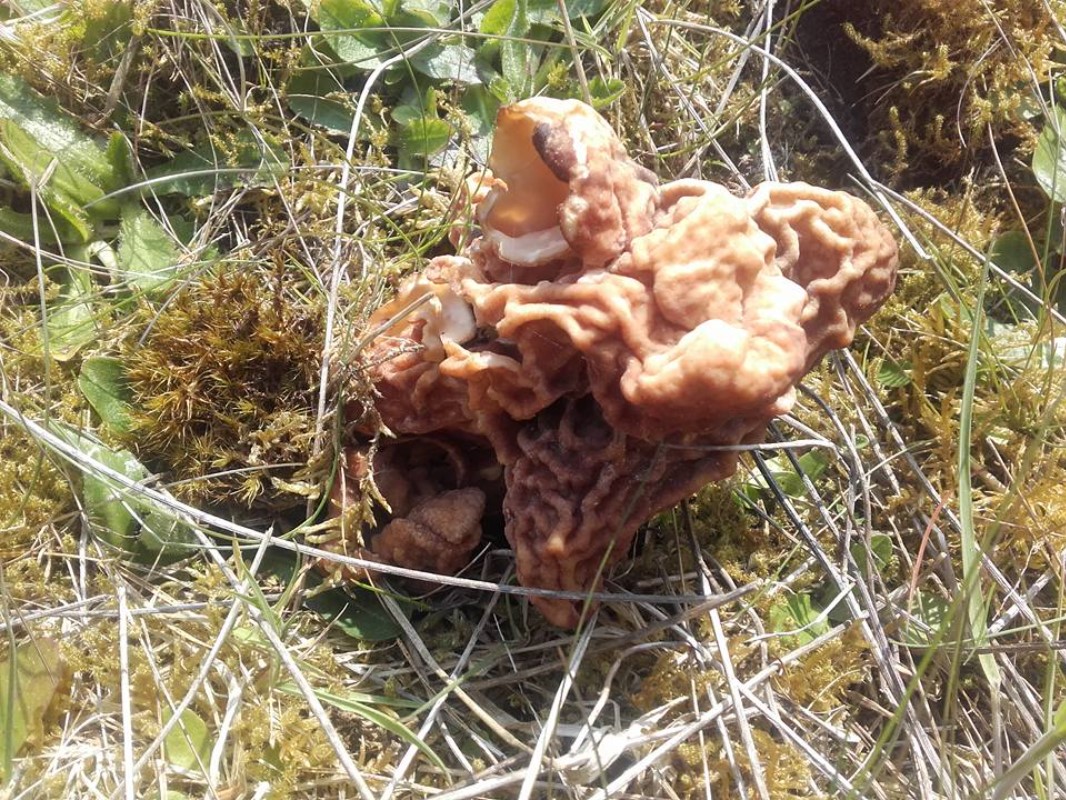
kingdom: Fungi
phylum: Ascomycota
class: Pezizomycetes
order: Pezizales
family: Discinaceae
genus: Gyromitra
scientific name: Gyromitra esculenta
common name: ægte stenmorkel
